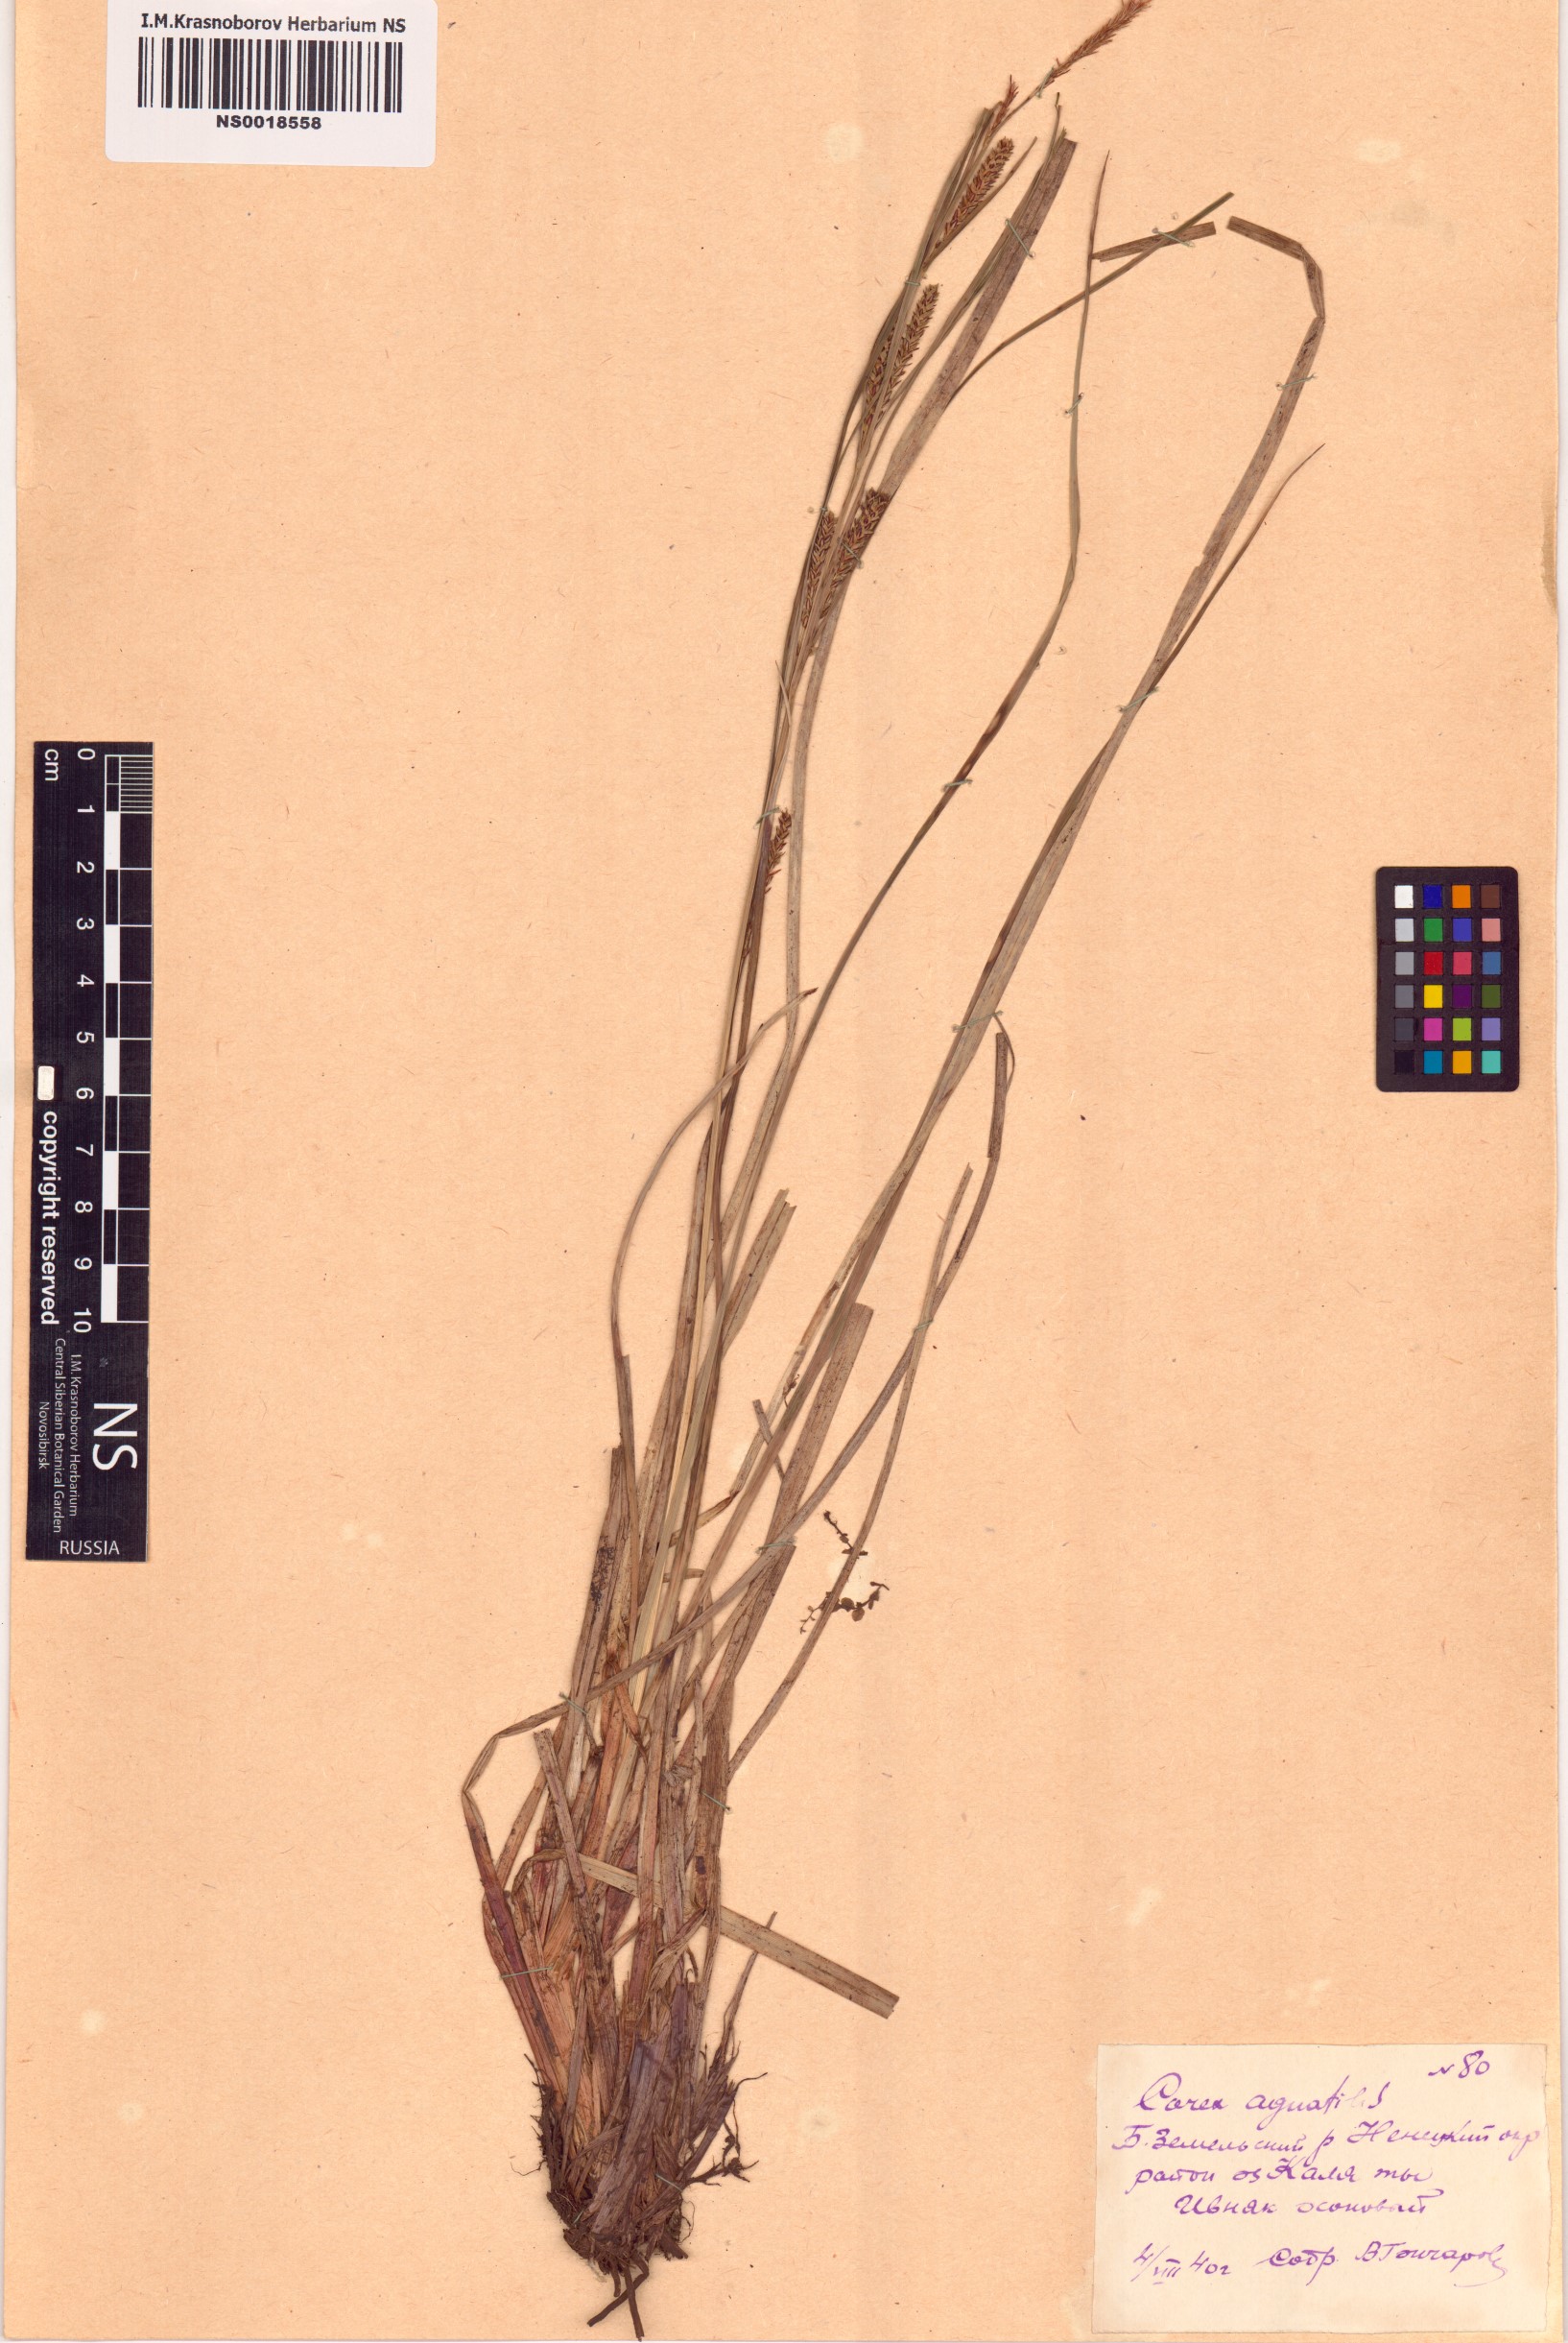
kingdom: Plantae
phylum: Tracheophyta
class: Liliopsida
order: Poales
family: Cyperaceae
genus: Carex
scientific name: Carex aquatilis
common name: Water sedge
